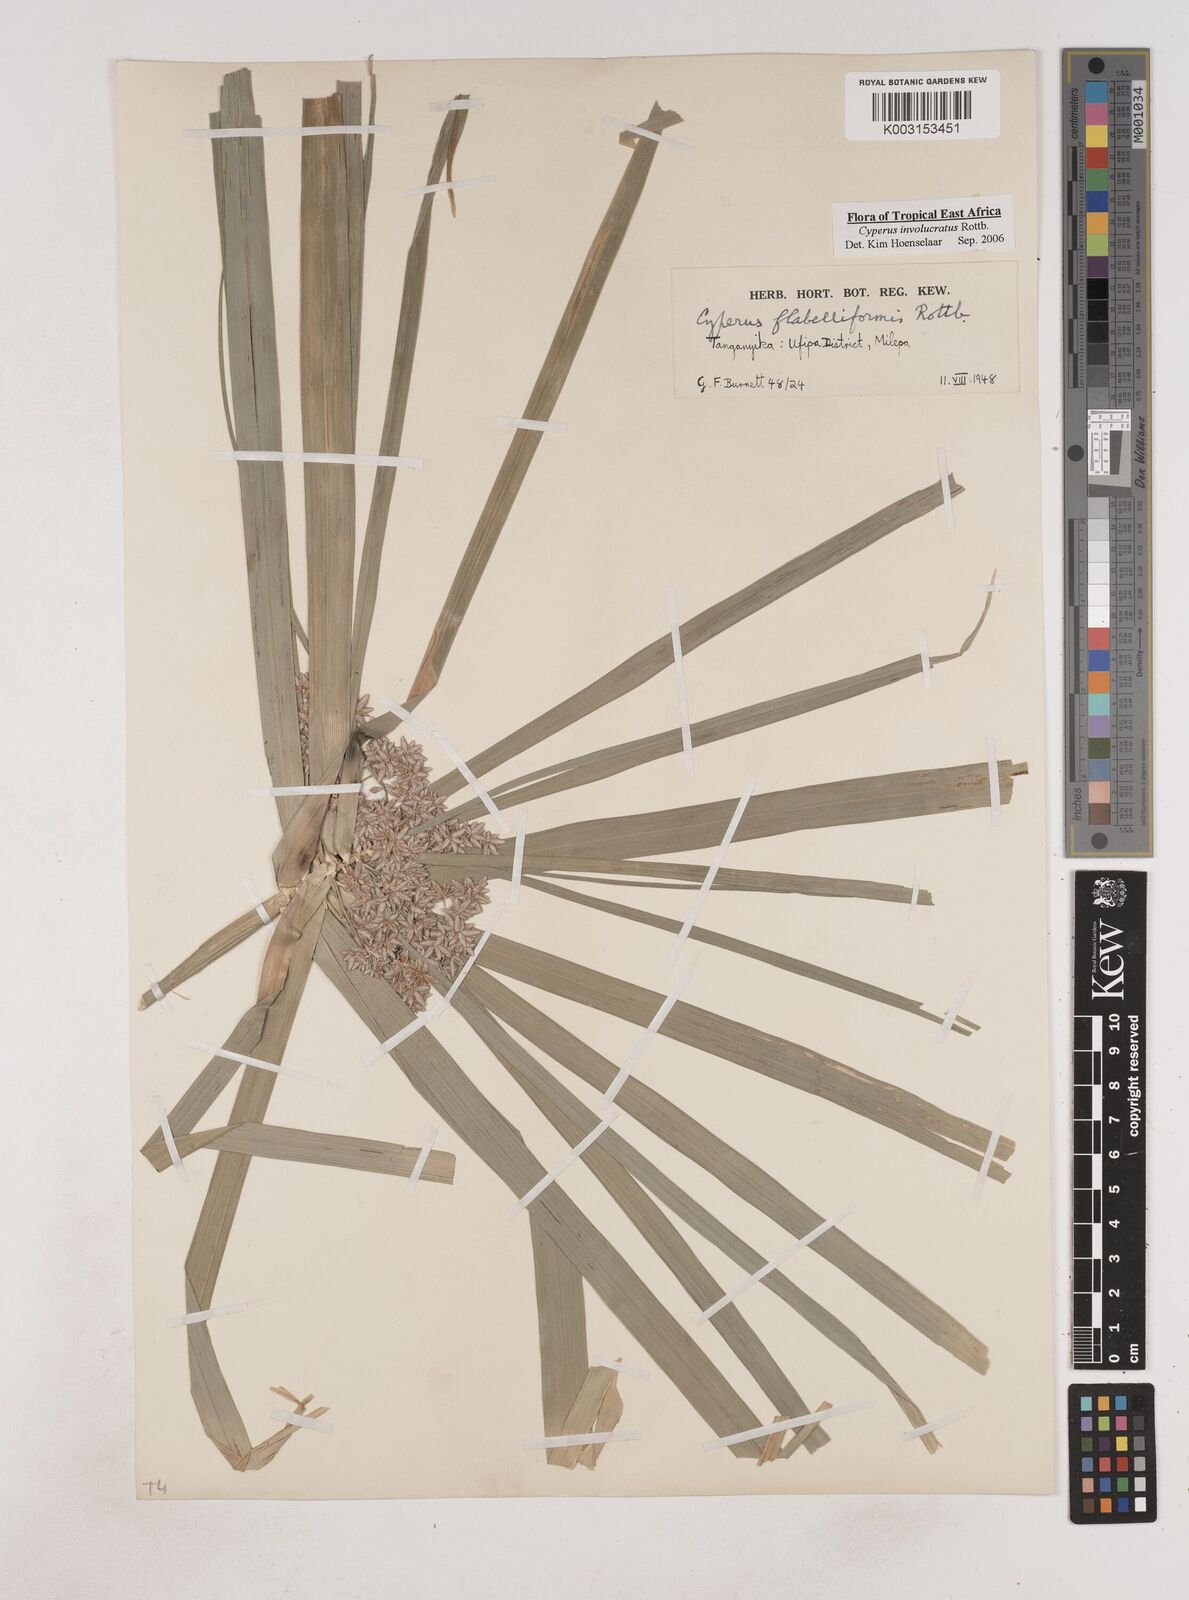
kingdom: Plantae
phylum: Tracheophyta
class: Liliopsida
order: Poales
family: Cyperaceae
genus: Cyperus
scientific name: Cyperus alternifolius
